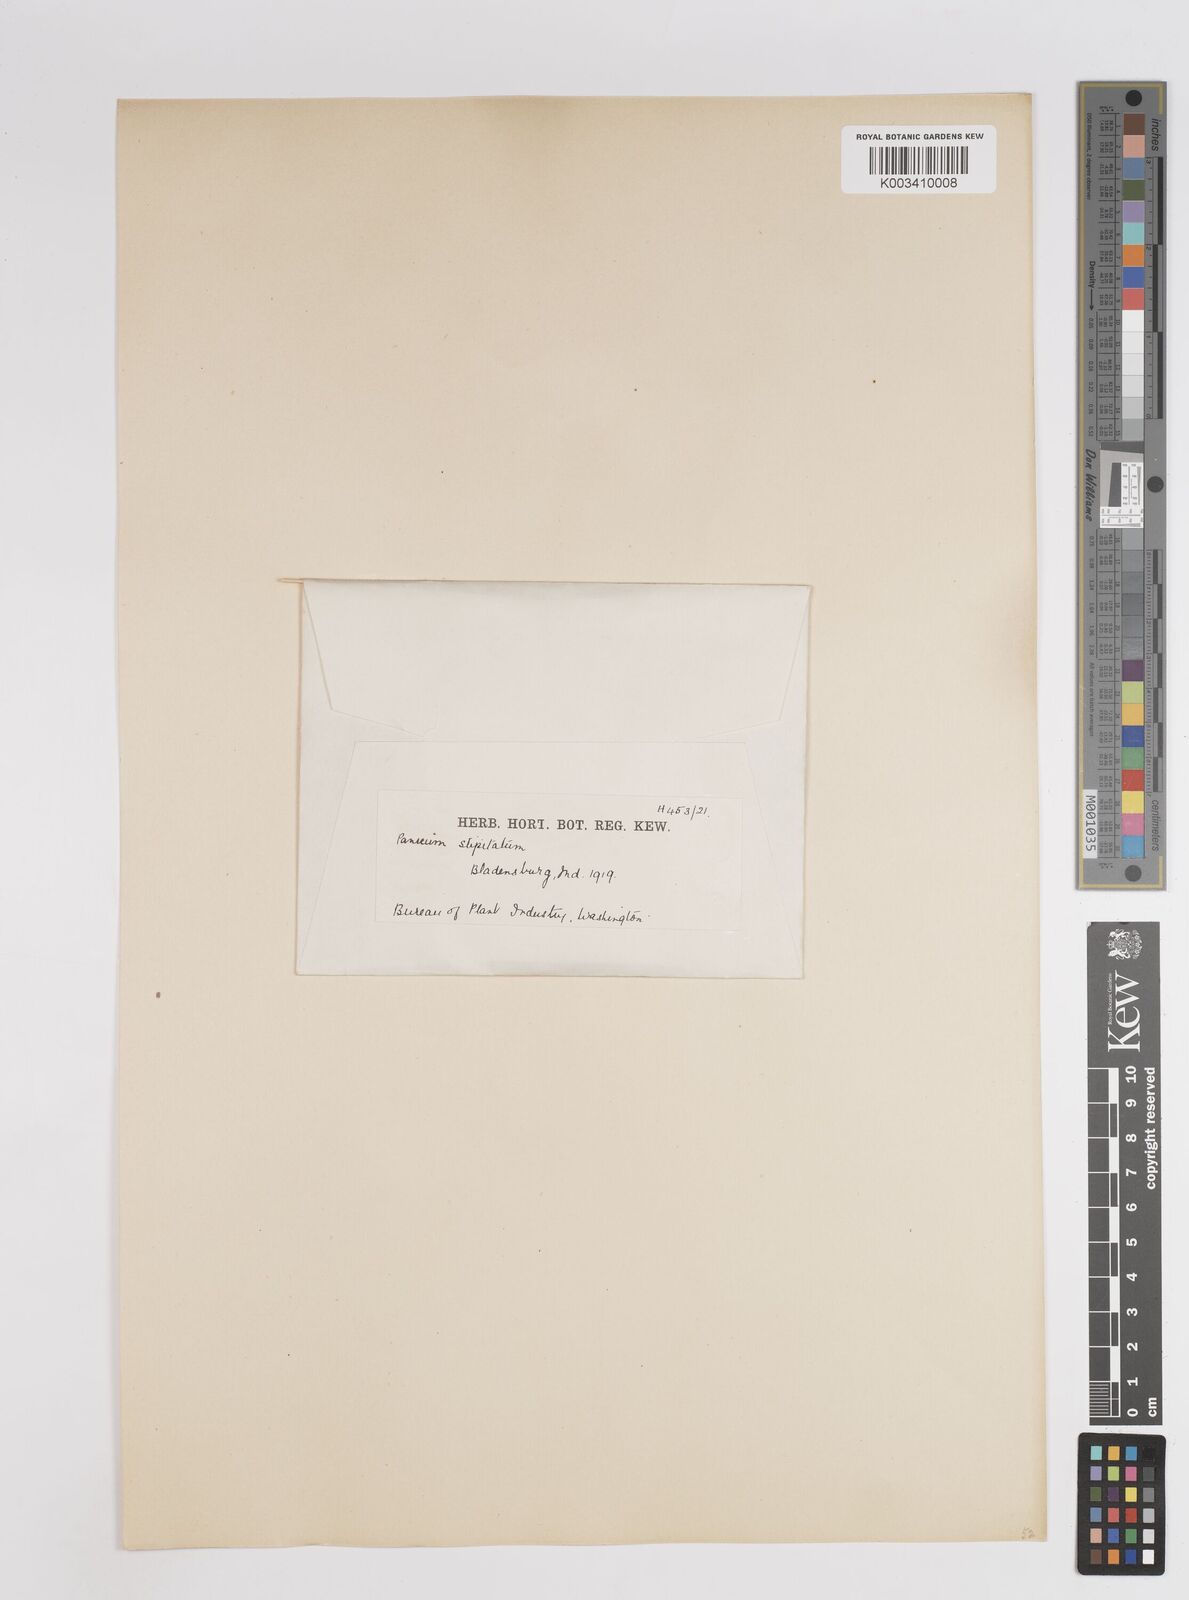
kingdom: Plantae
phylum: Tracheophyta
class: Liliopsida
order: Poales
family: Poaceae
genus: Coleataenia
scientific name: Coleataenia pulchra
